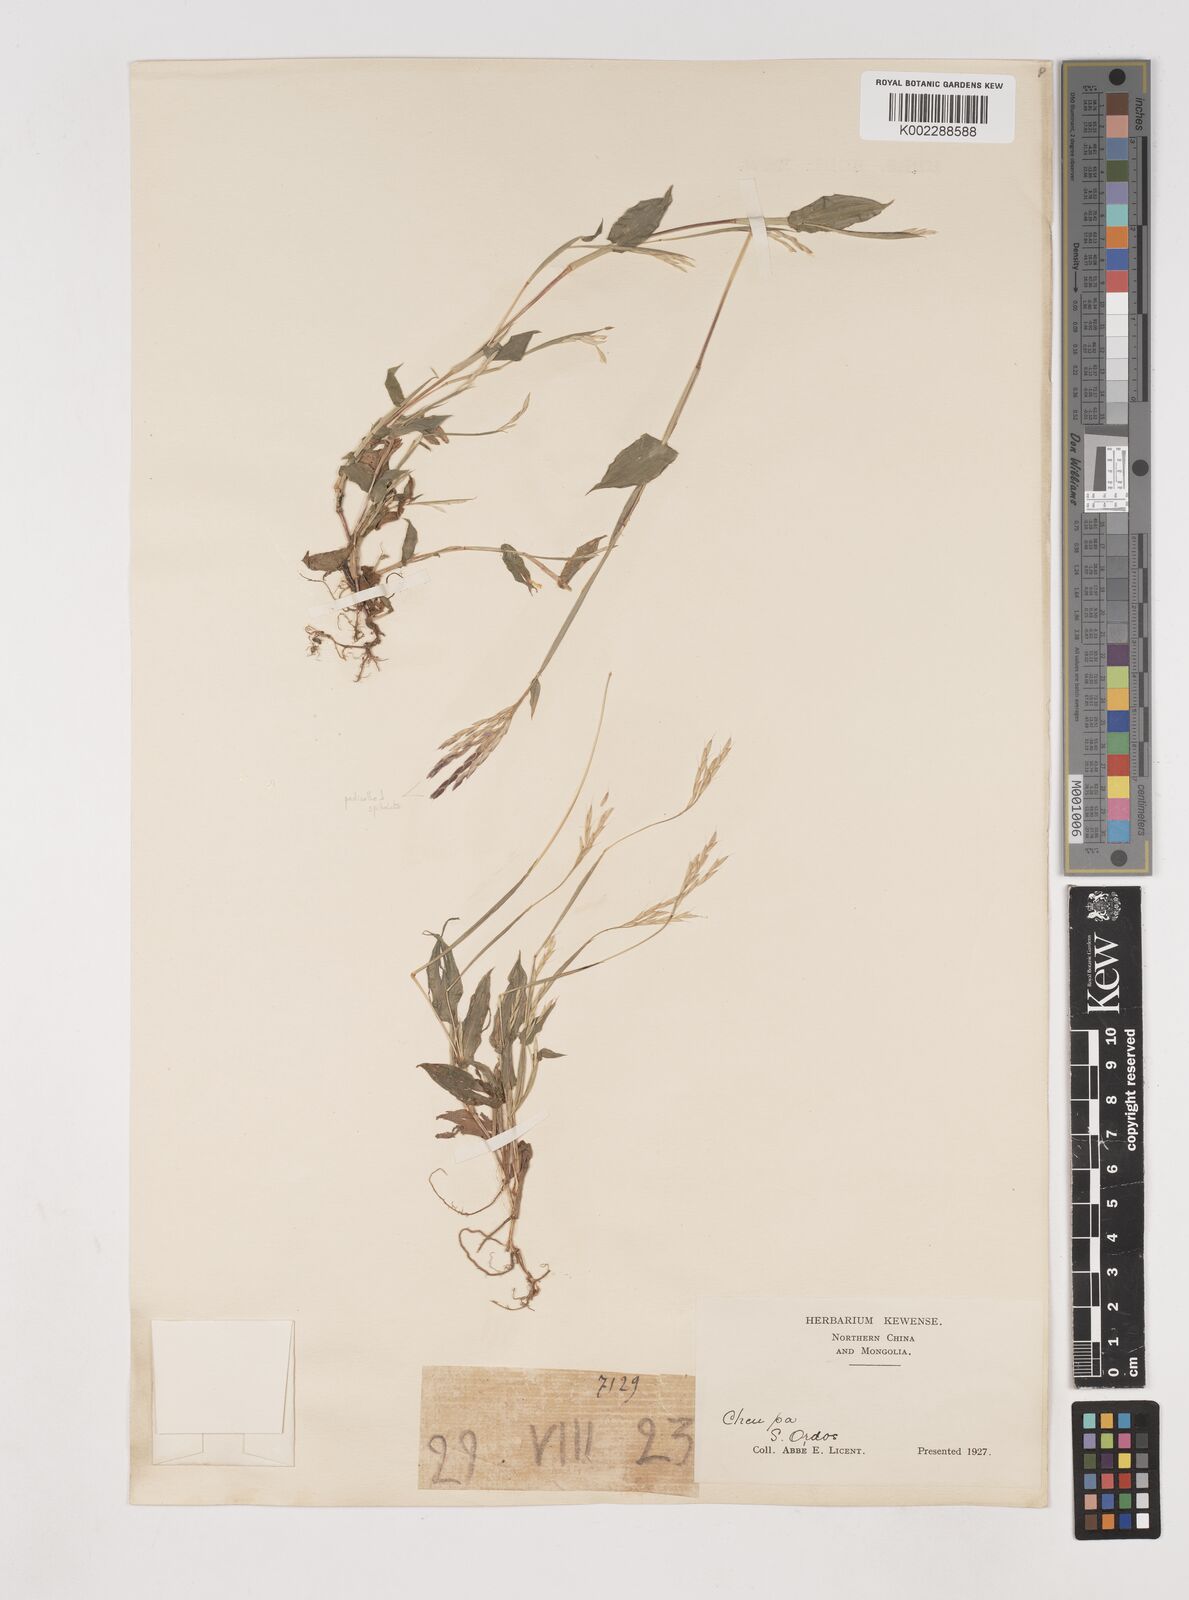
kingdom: Plantae
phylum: Tracheophyta
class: Liliopsida
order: Poales
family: Poaceae
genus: Arthraxon
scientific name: Arthraxon hispidus
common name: Small carpgrass
